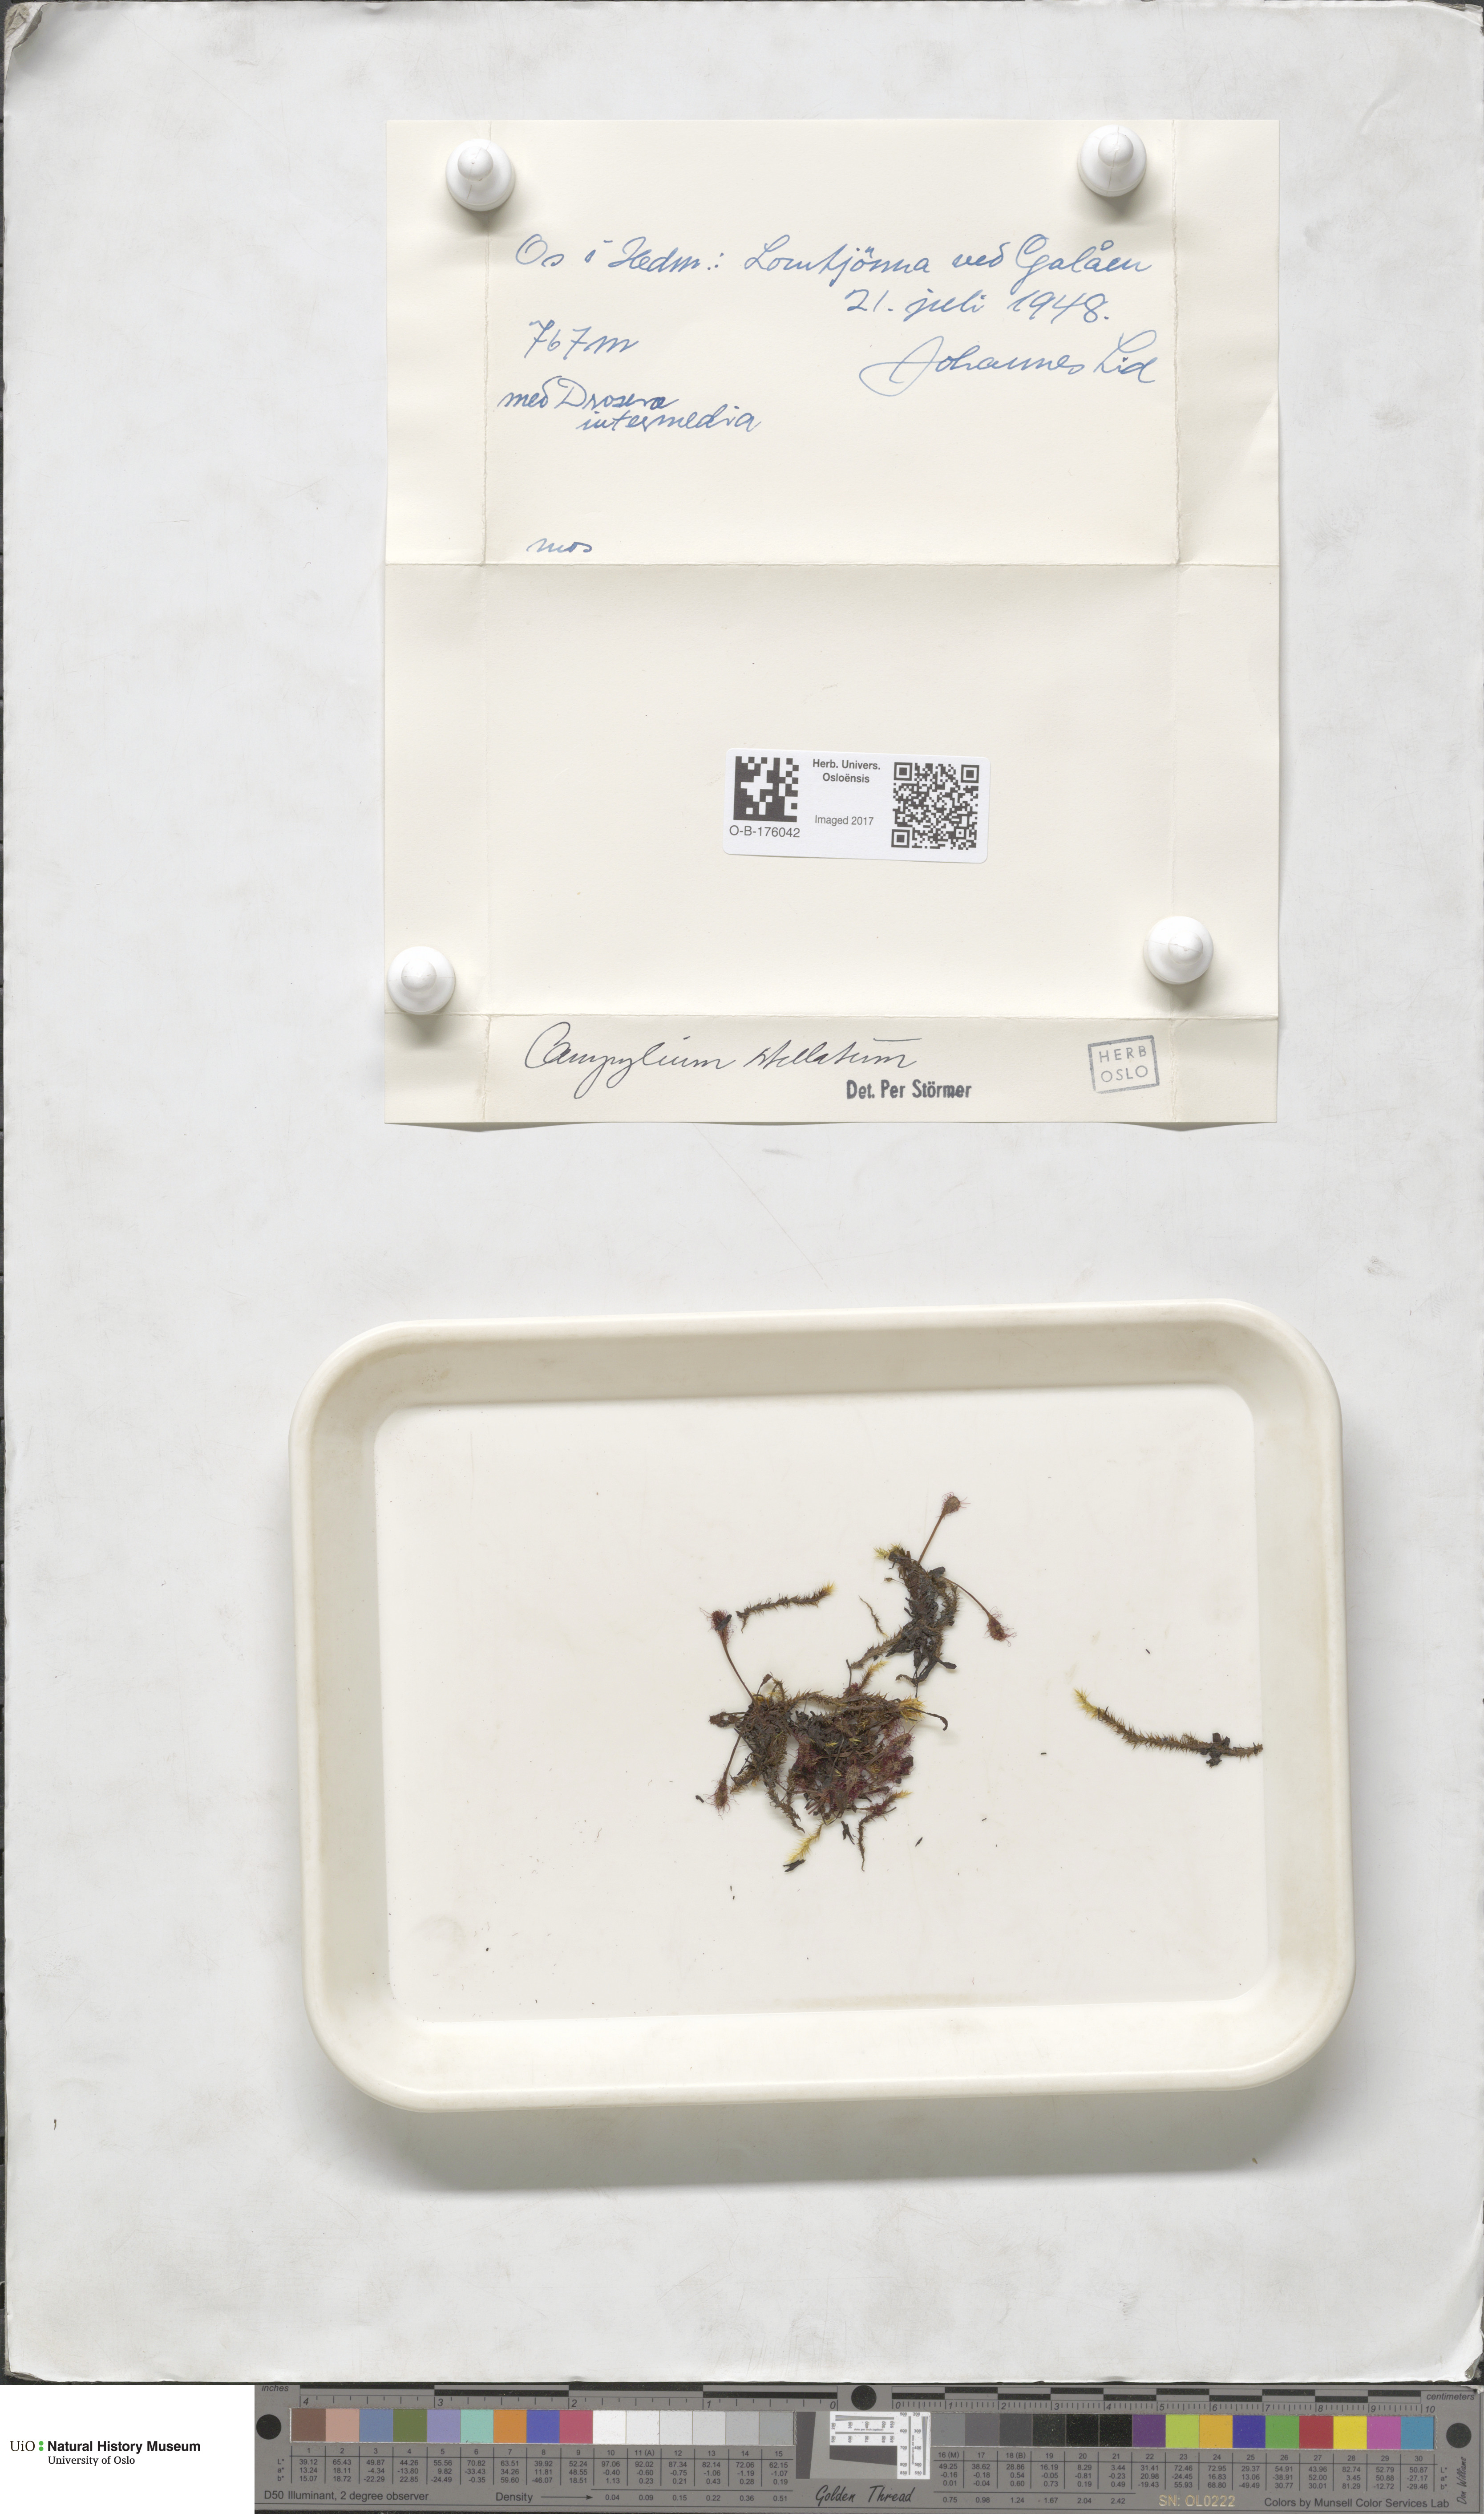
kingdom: Plantae
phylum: Bryophyta
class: Bryopsida
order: Hypnales
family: Amblystegiaceae
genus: Campylium
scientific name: Campylium stellatum
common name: Yellow starry fen moss
